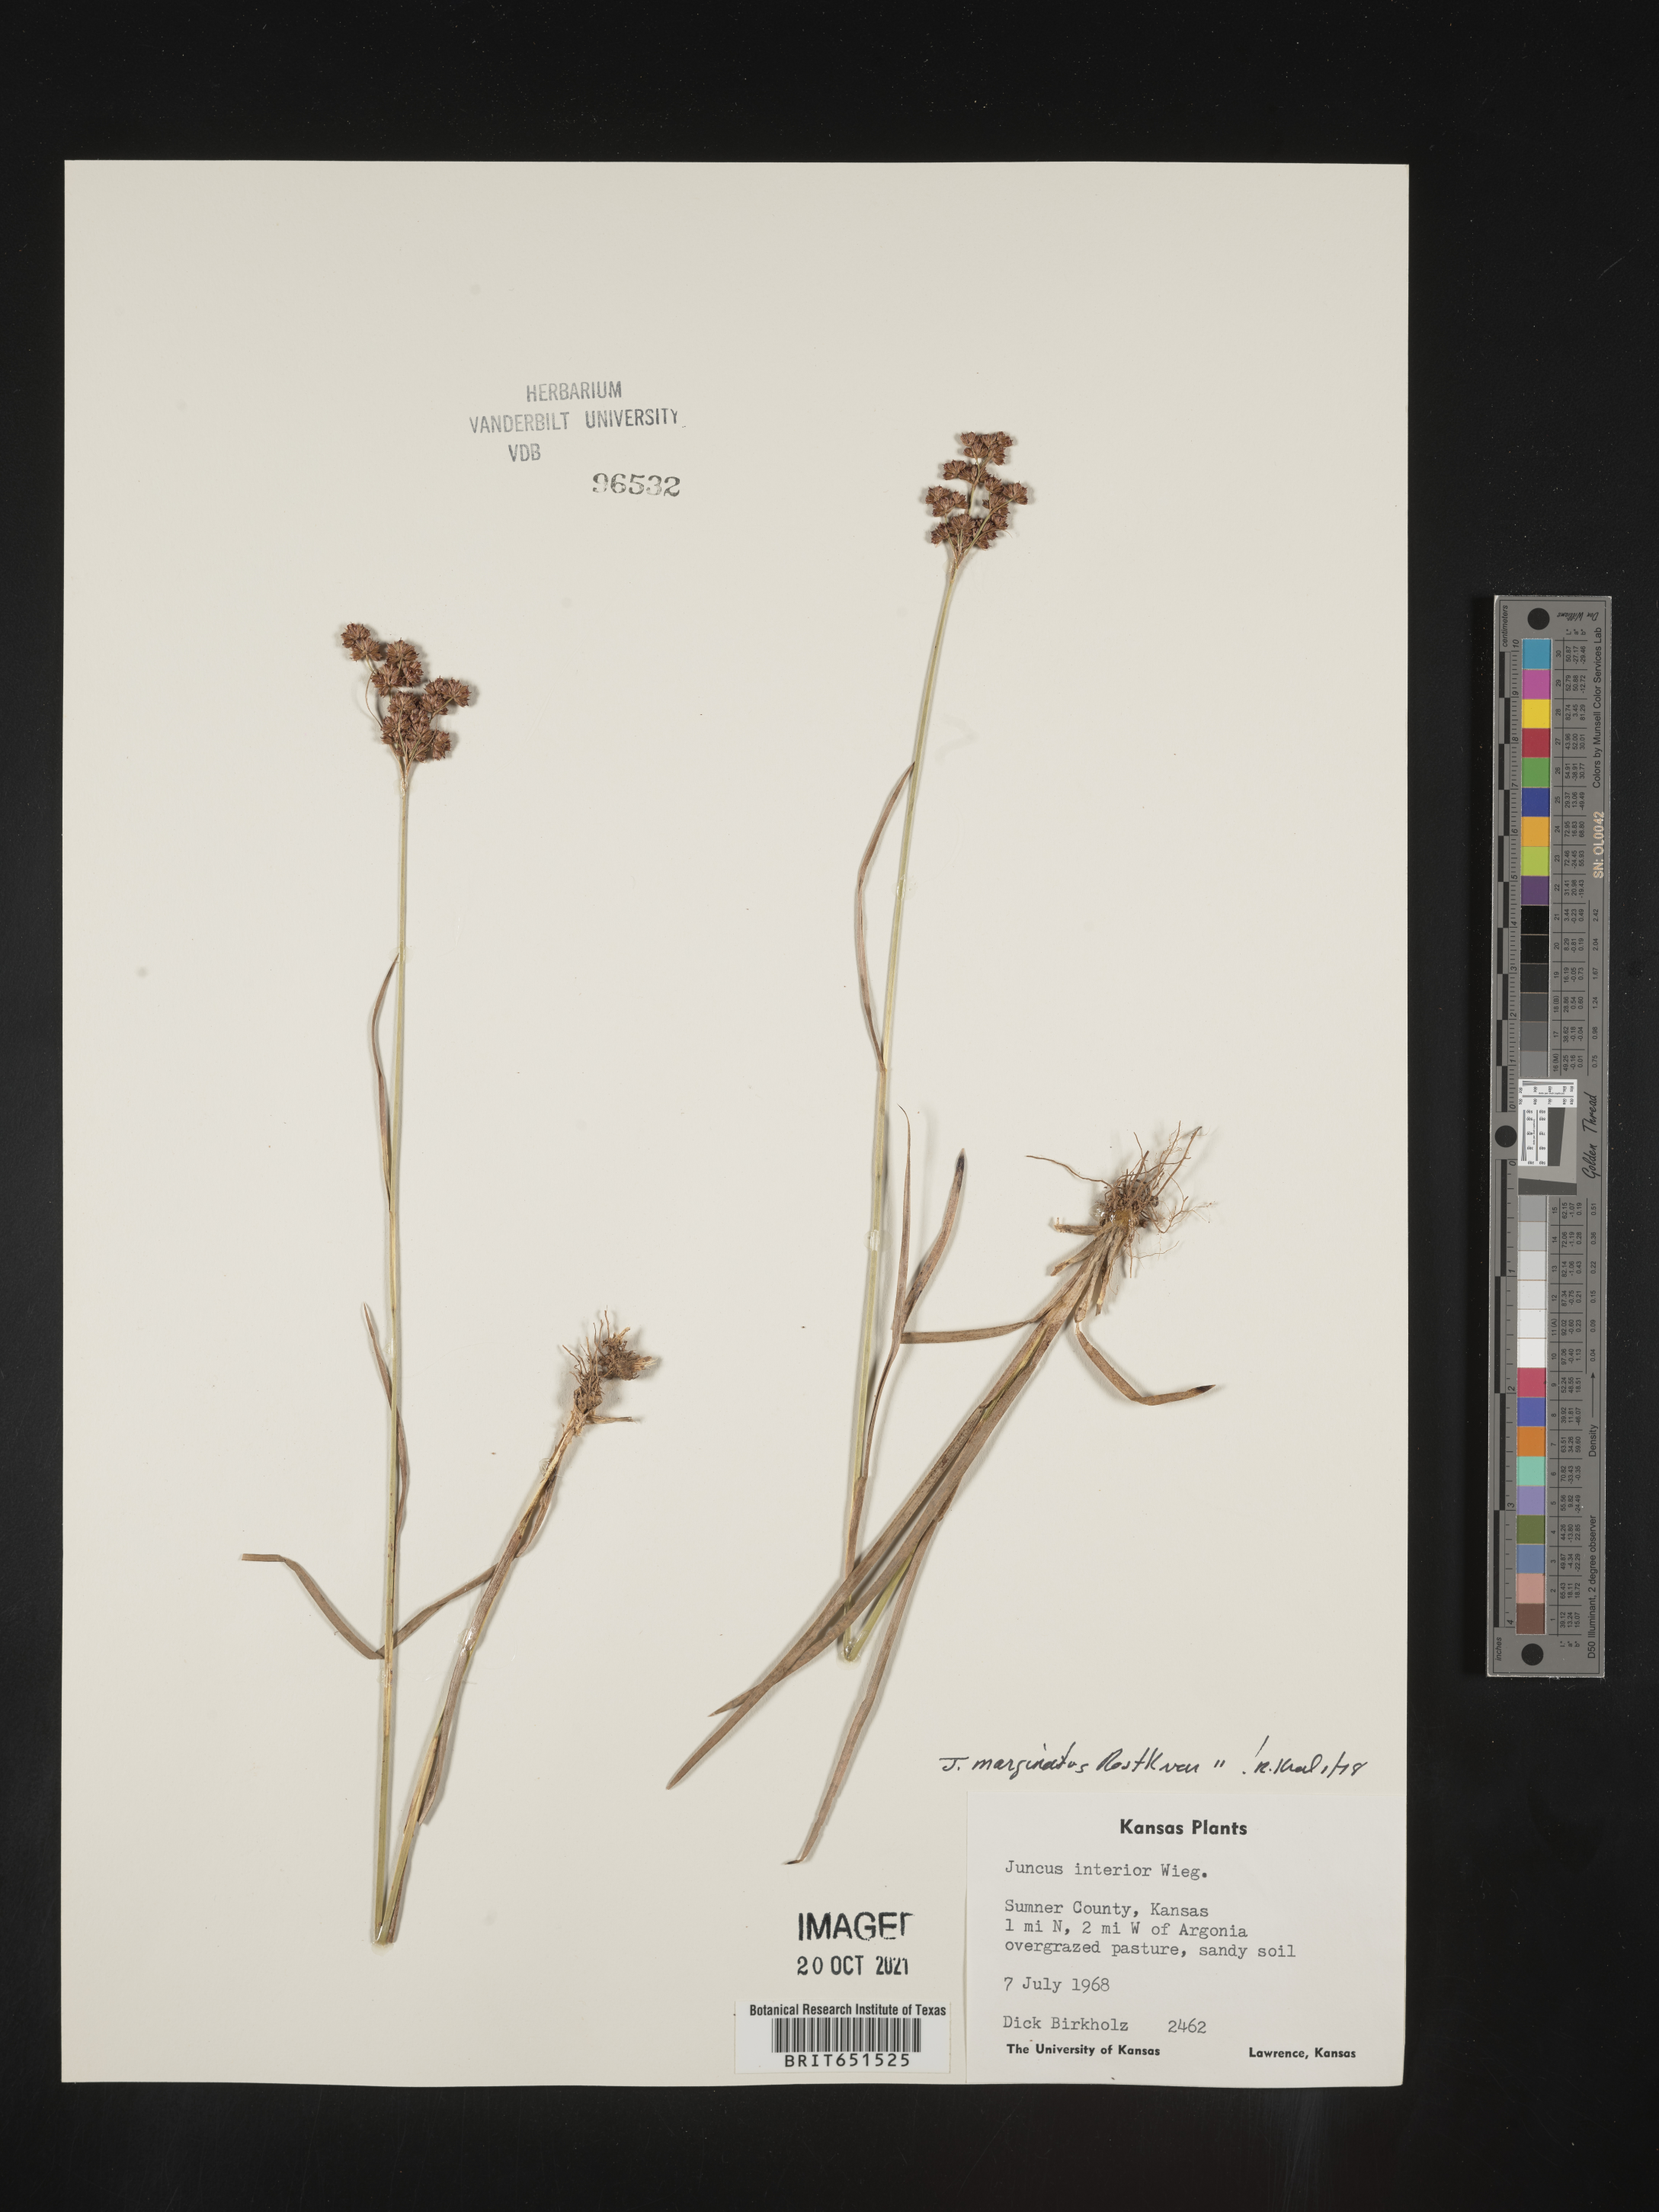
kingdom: Plantae
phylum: Tracheophyta
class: Liliopsida
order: Poales
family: Juncaceae
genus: Juncus
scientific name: Juncus marginatus
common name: Grass-leaf rush
